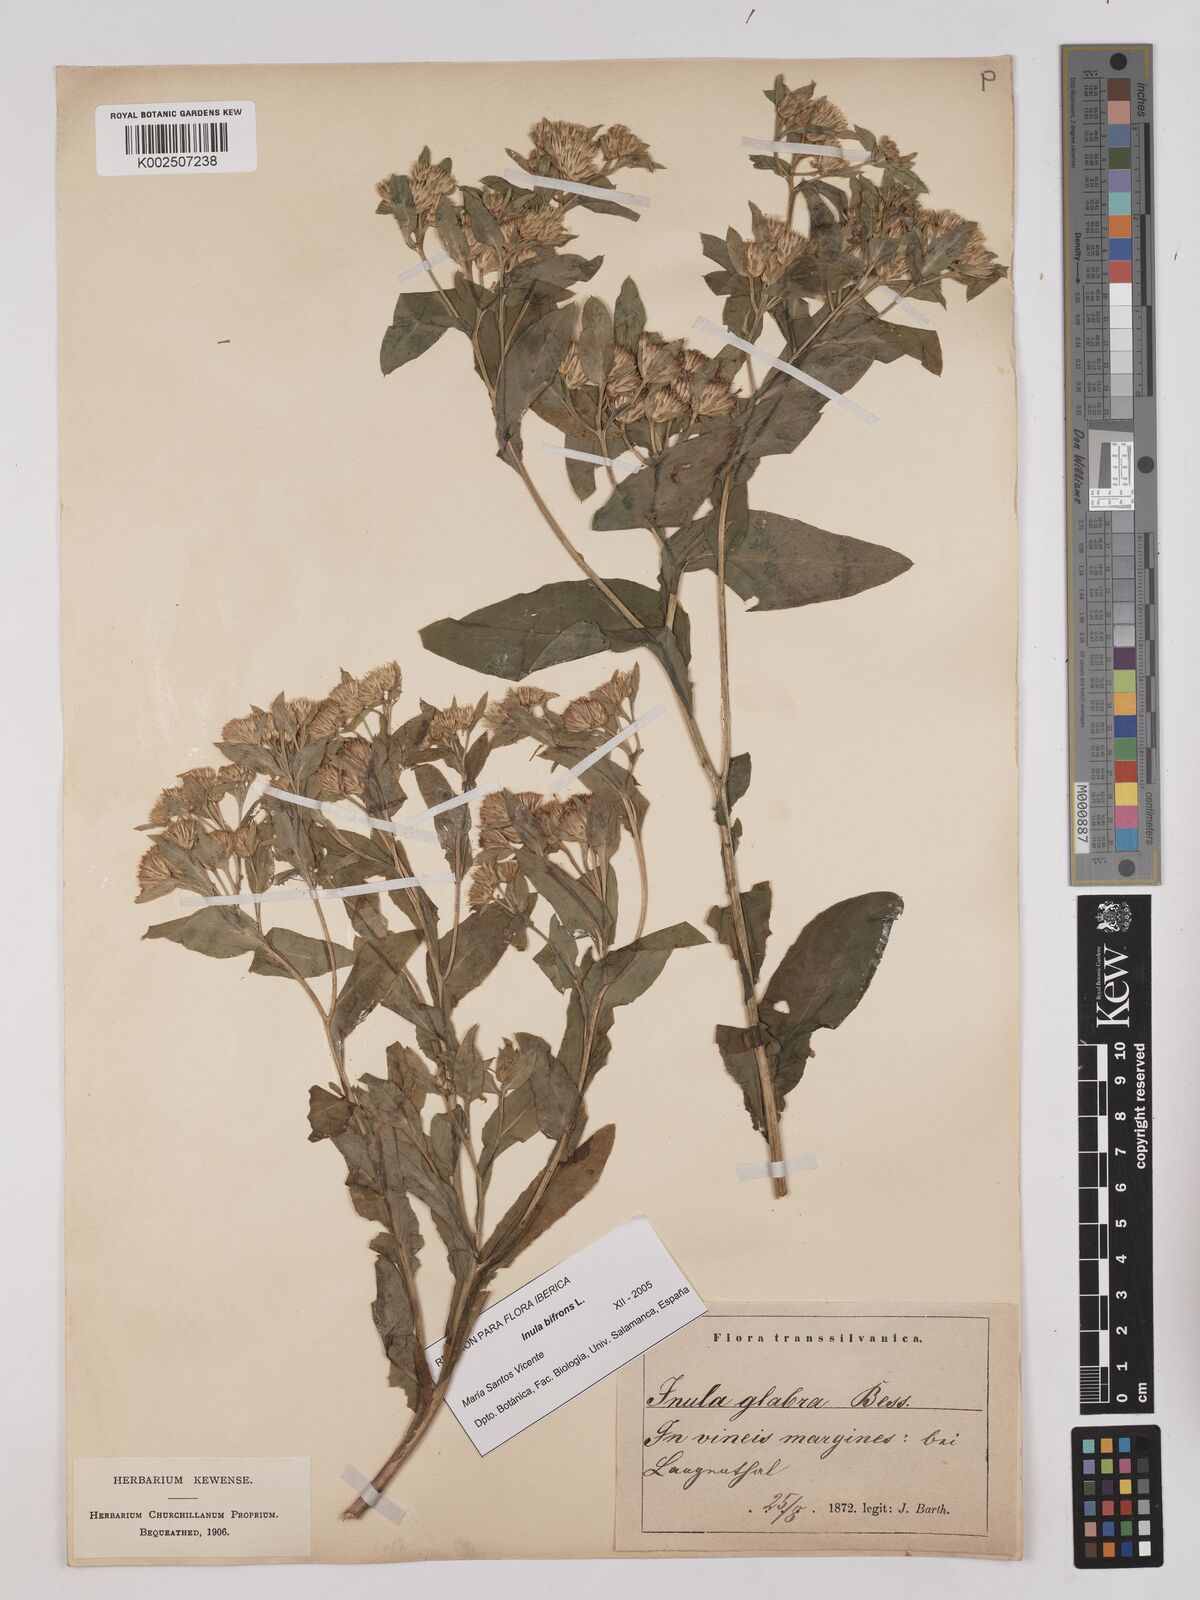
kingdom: Plantae
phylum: Tracheophyta
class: Magnoliopsida
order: Asterales
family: Asteraceae
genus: Pentanema
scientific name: Pentanema bifrons
